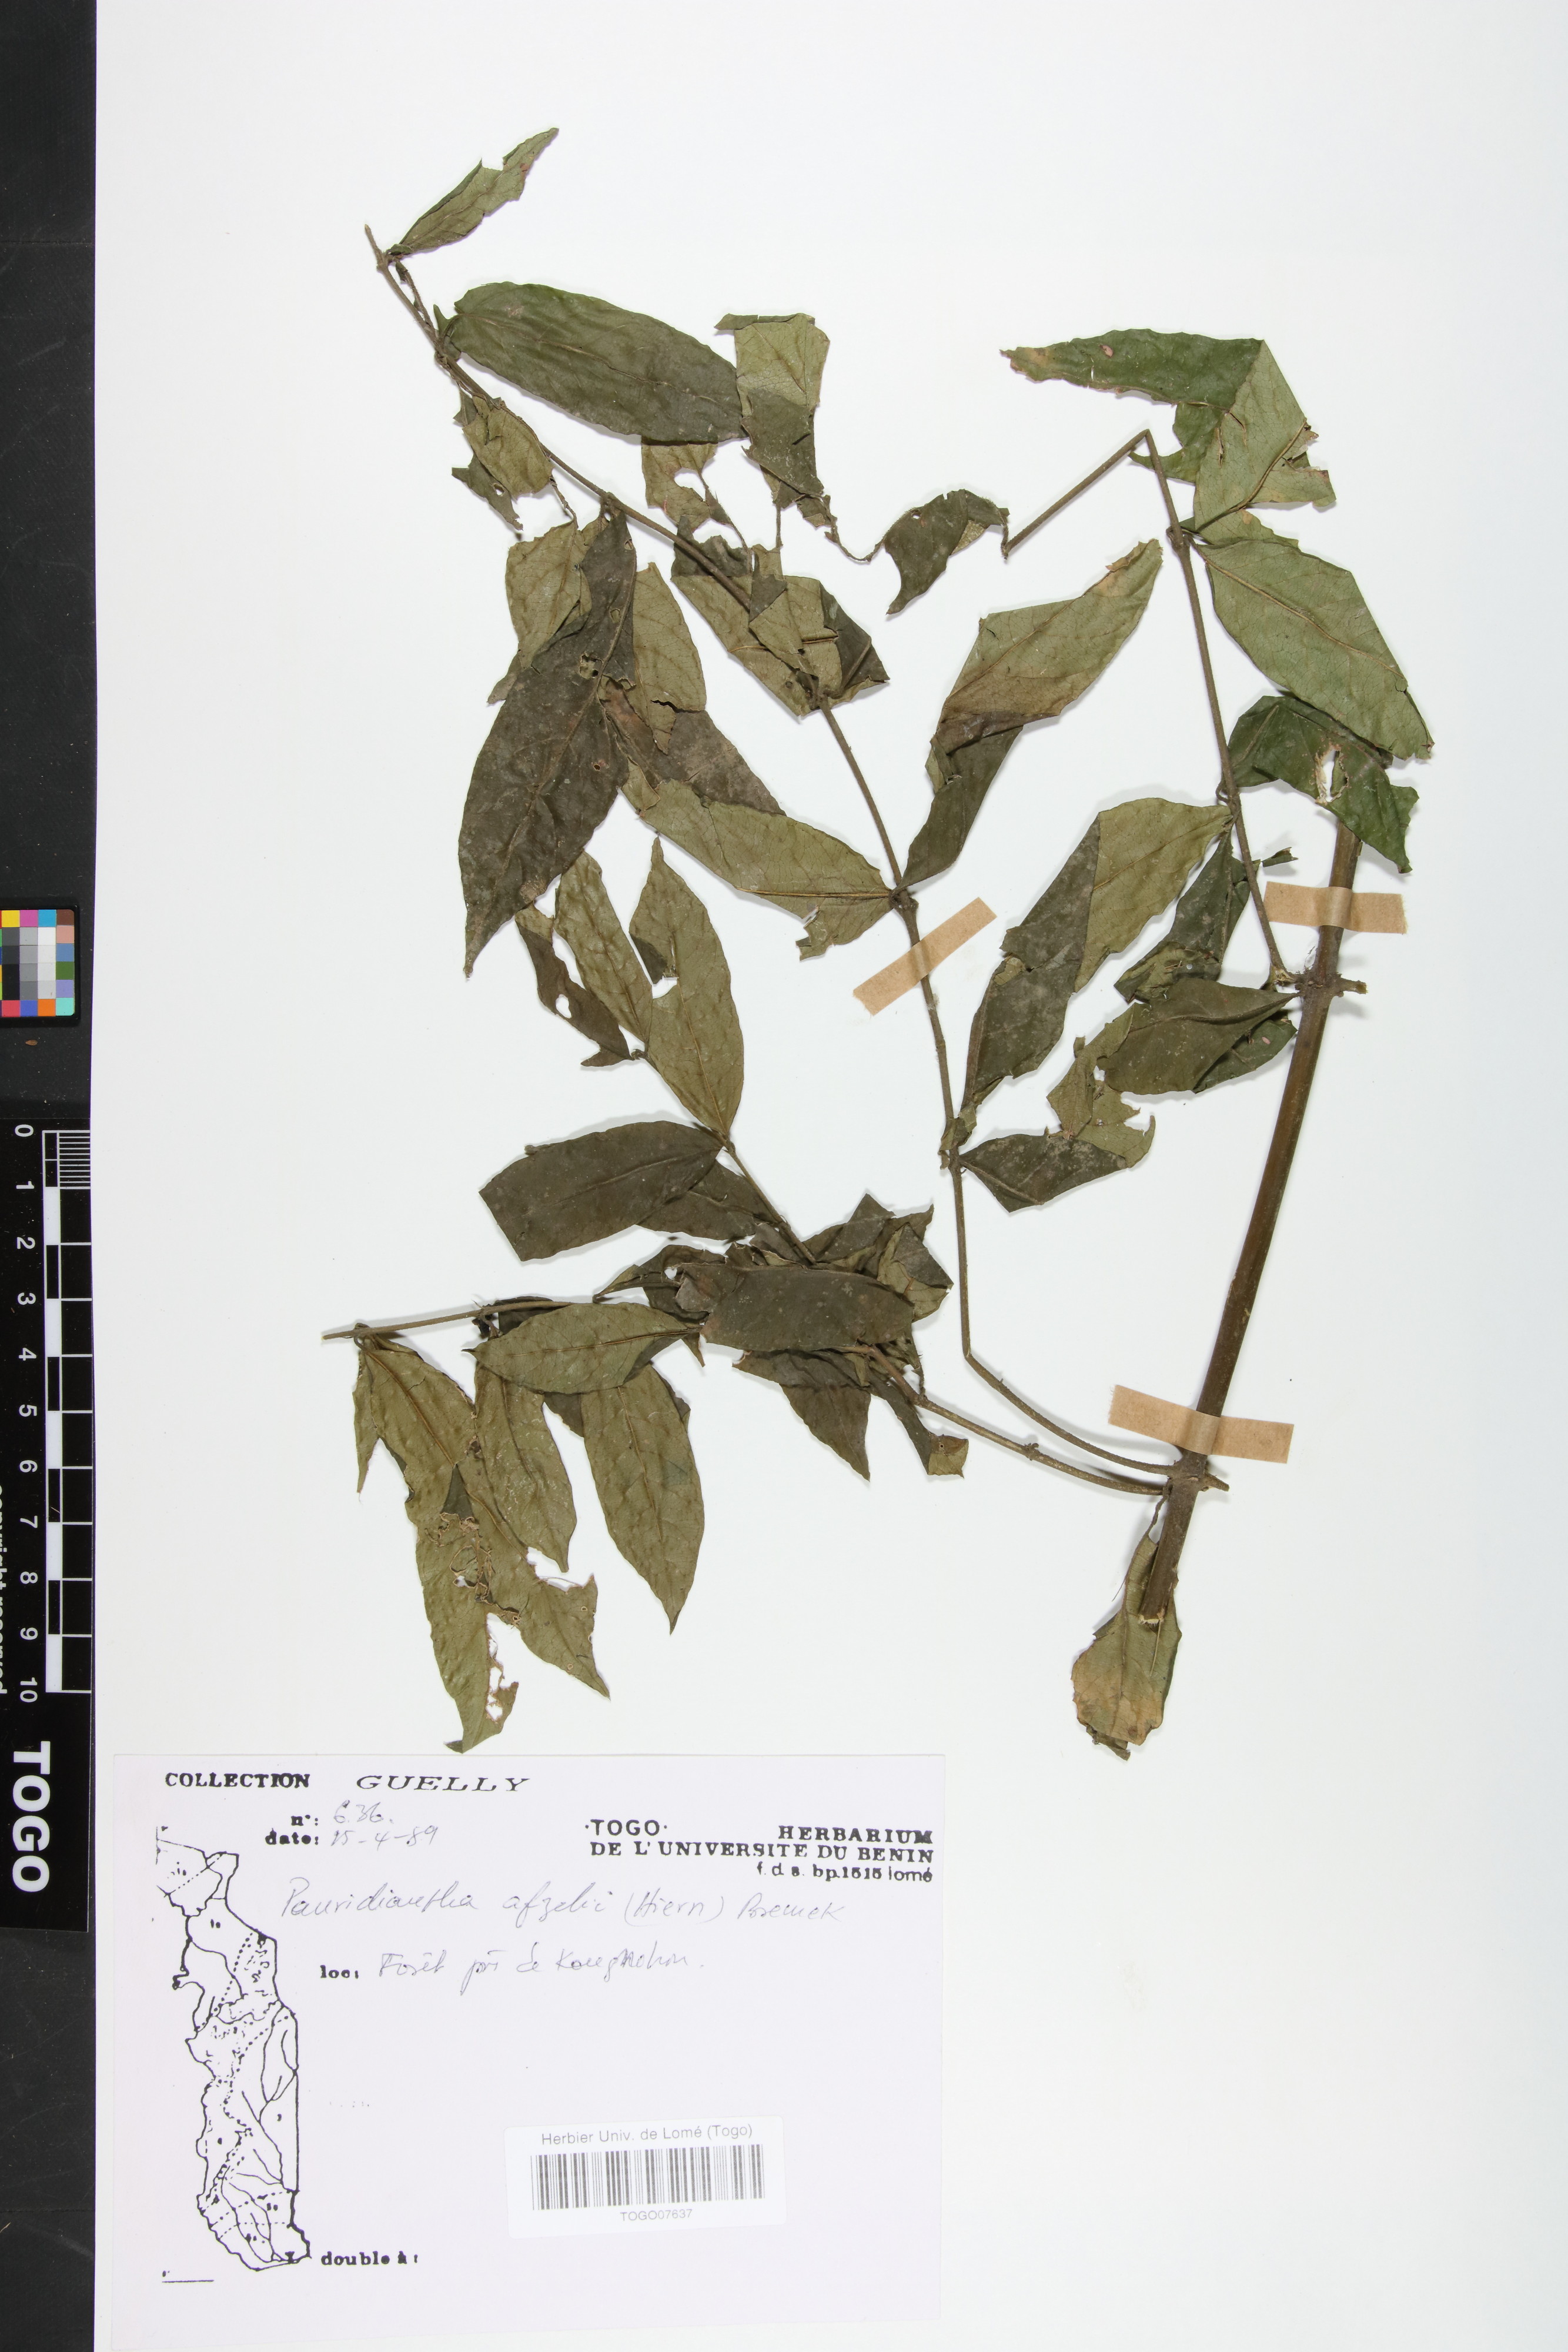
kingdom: Plantae
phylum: Tracheophyta
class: Magnoliopsida
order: Gentianales
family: Rubiaceae
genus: Pauridiantha
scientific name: Pauridiantha afzelii
